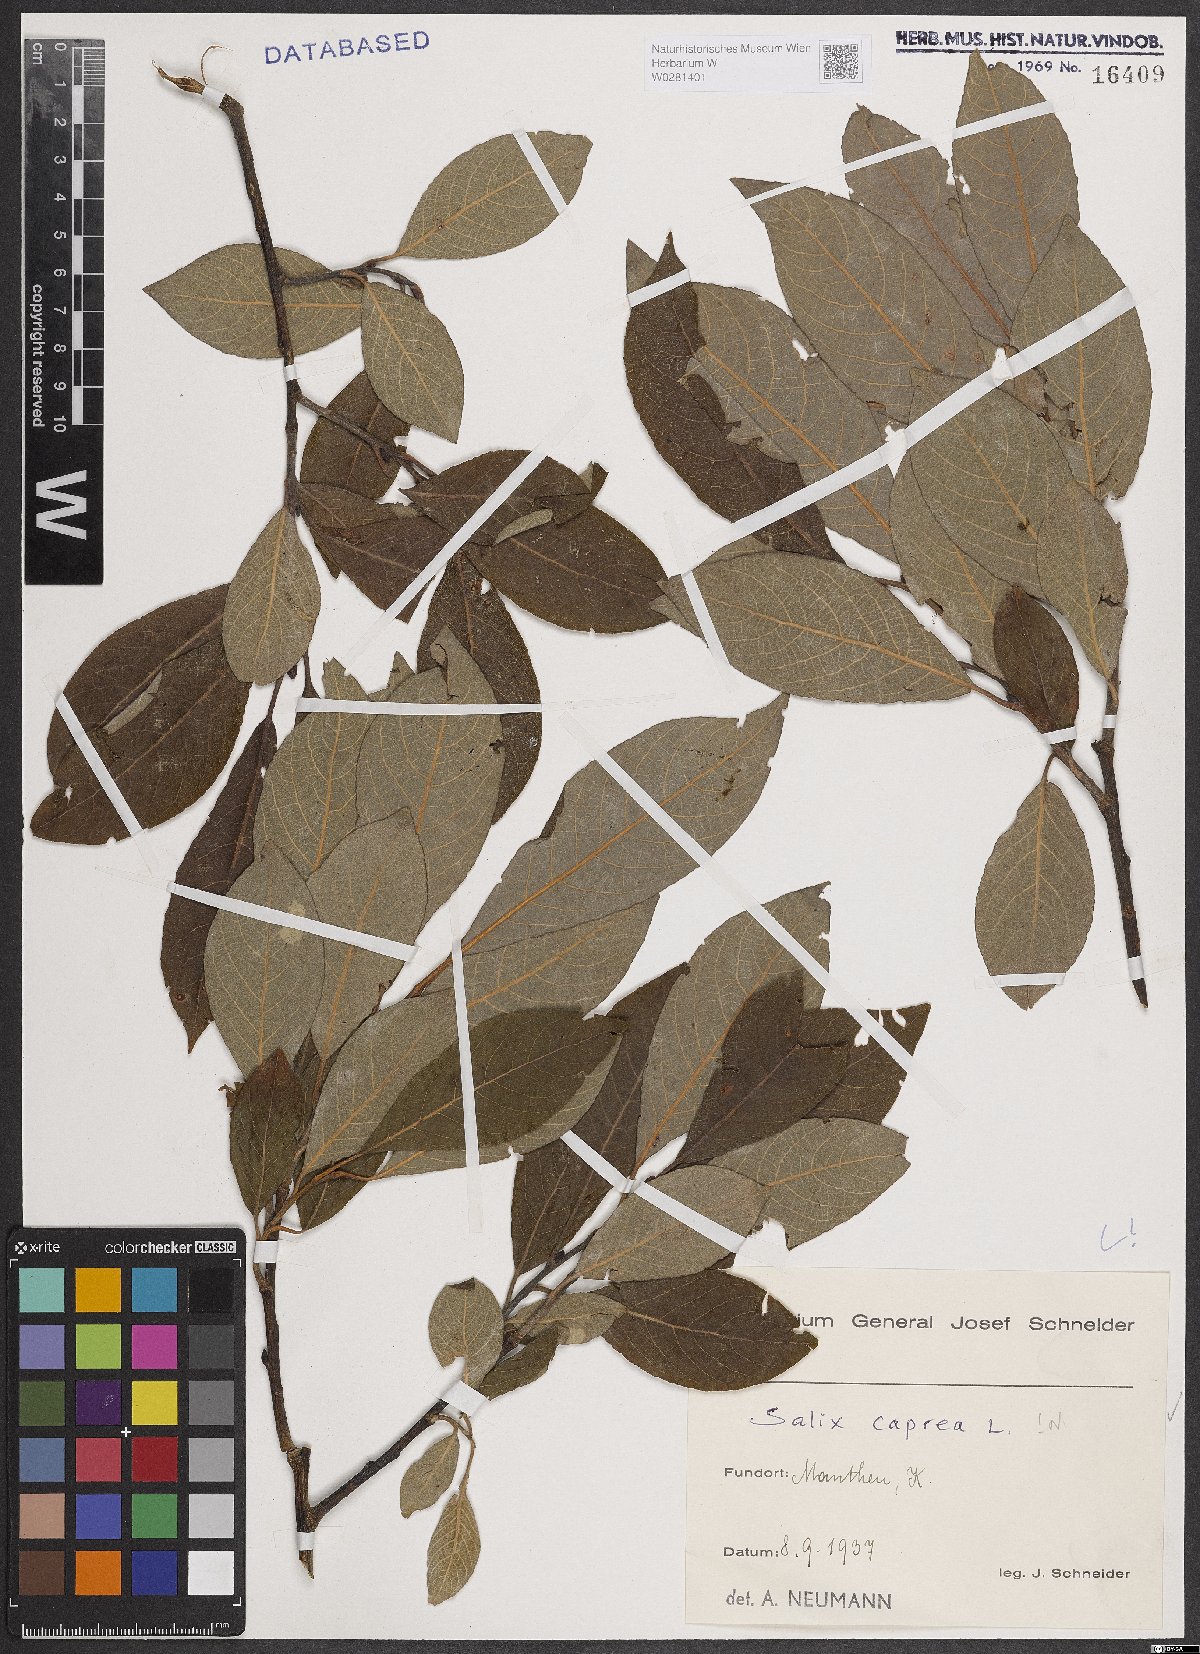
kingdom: Plantae
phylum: Tracheophyta
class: Magnoliopsida
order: Malpighiales
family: Salicaceae
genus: Salix
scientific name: Salix caprea
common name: Goat willow
